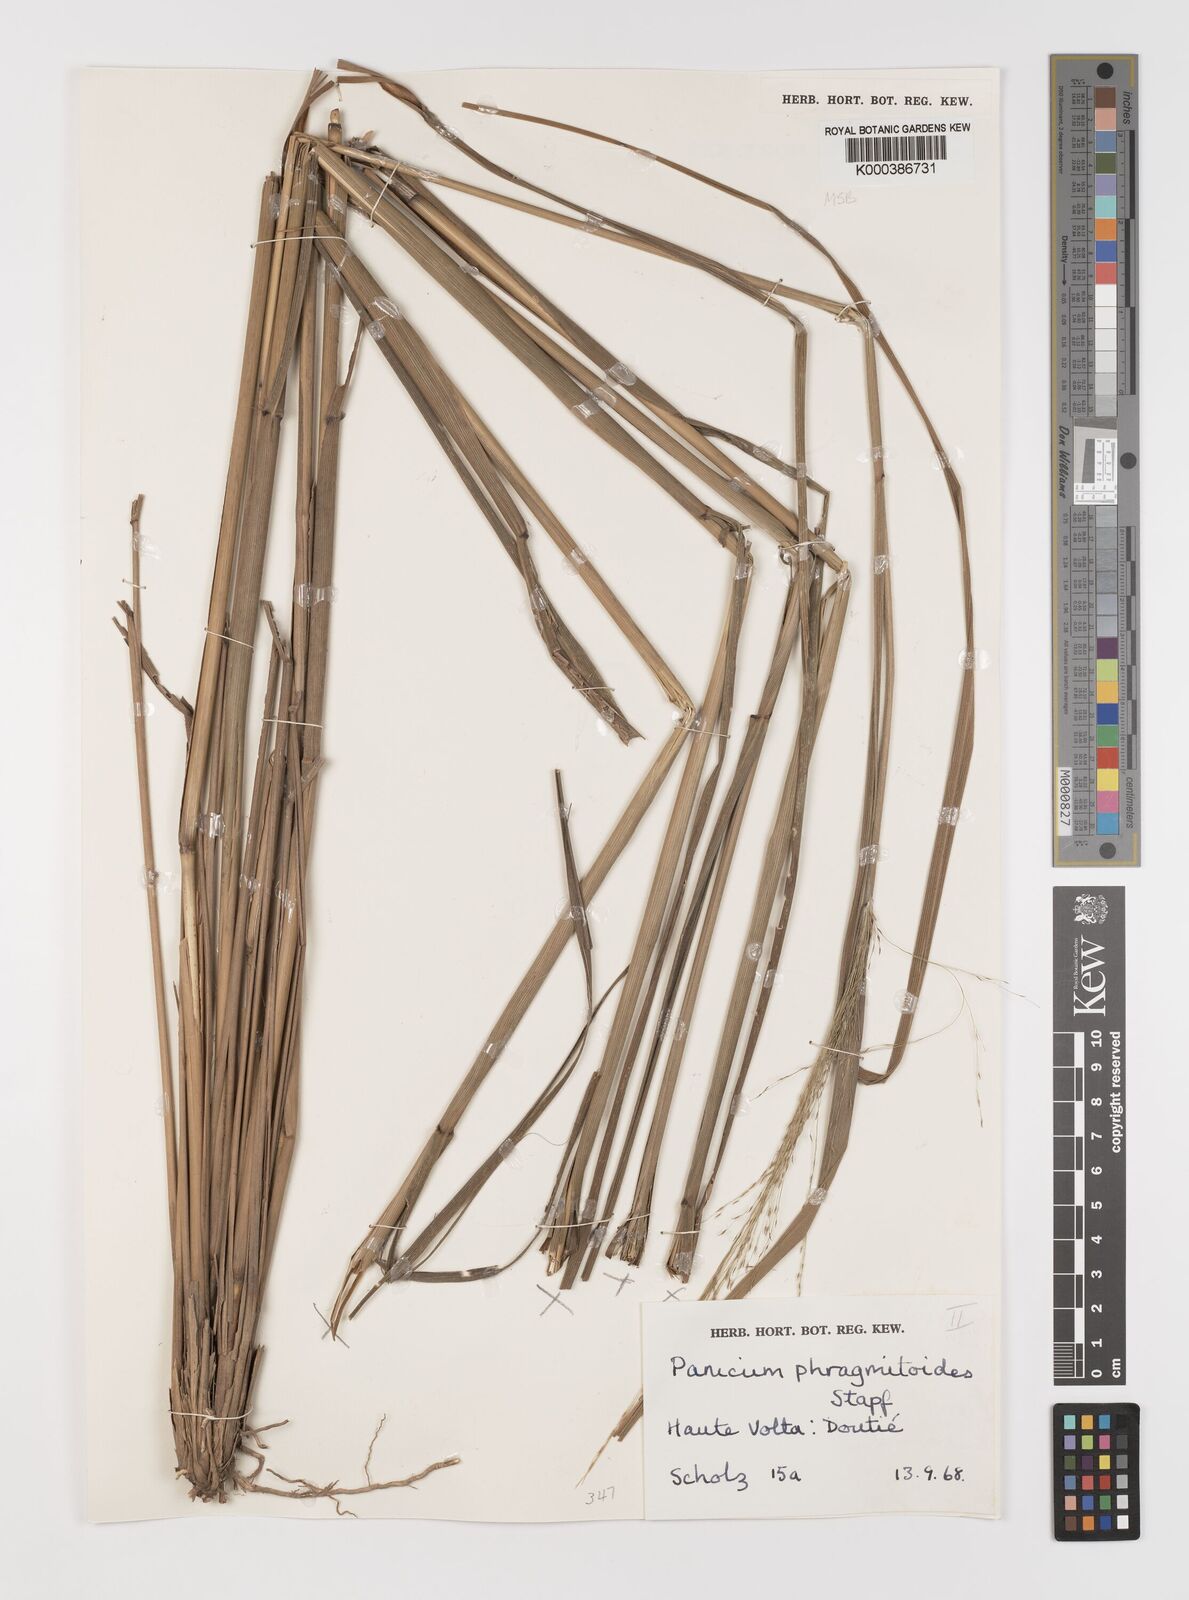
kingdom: Plantae
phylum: Tracheophyta
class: Liliopsida
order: Poales
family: Poaceae
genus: Panicum
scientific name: Panicum phragmitoides
